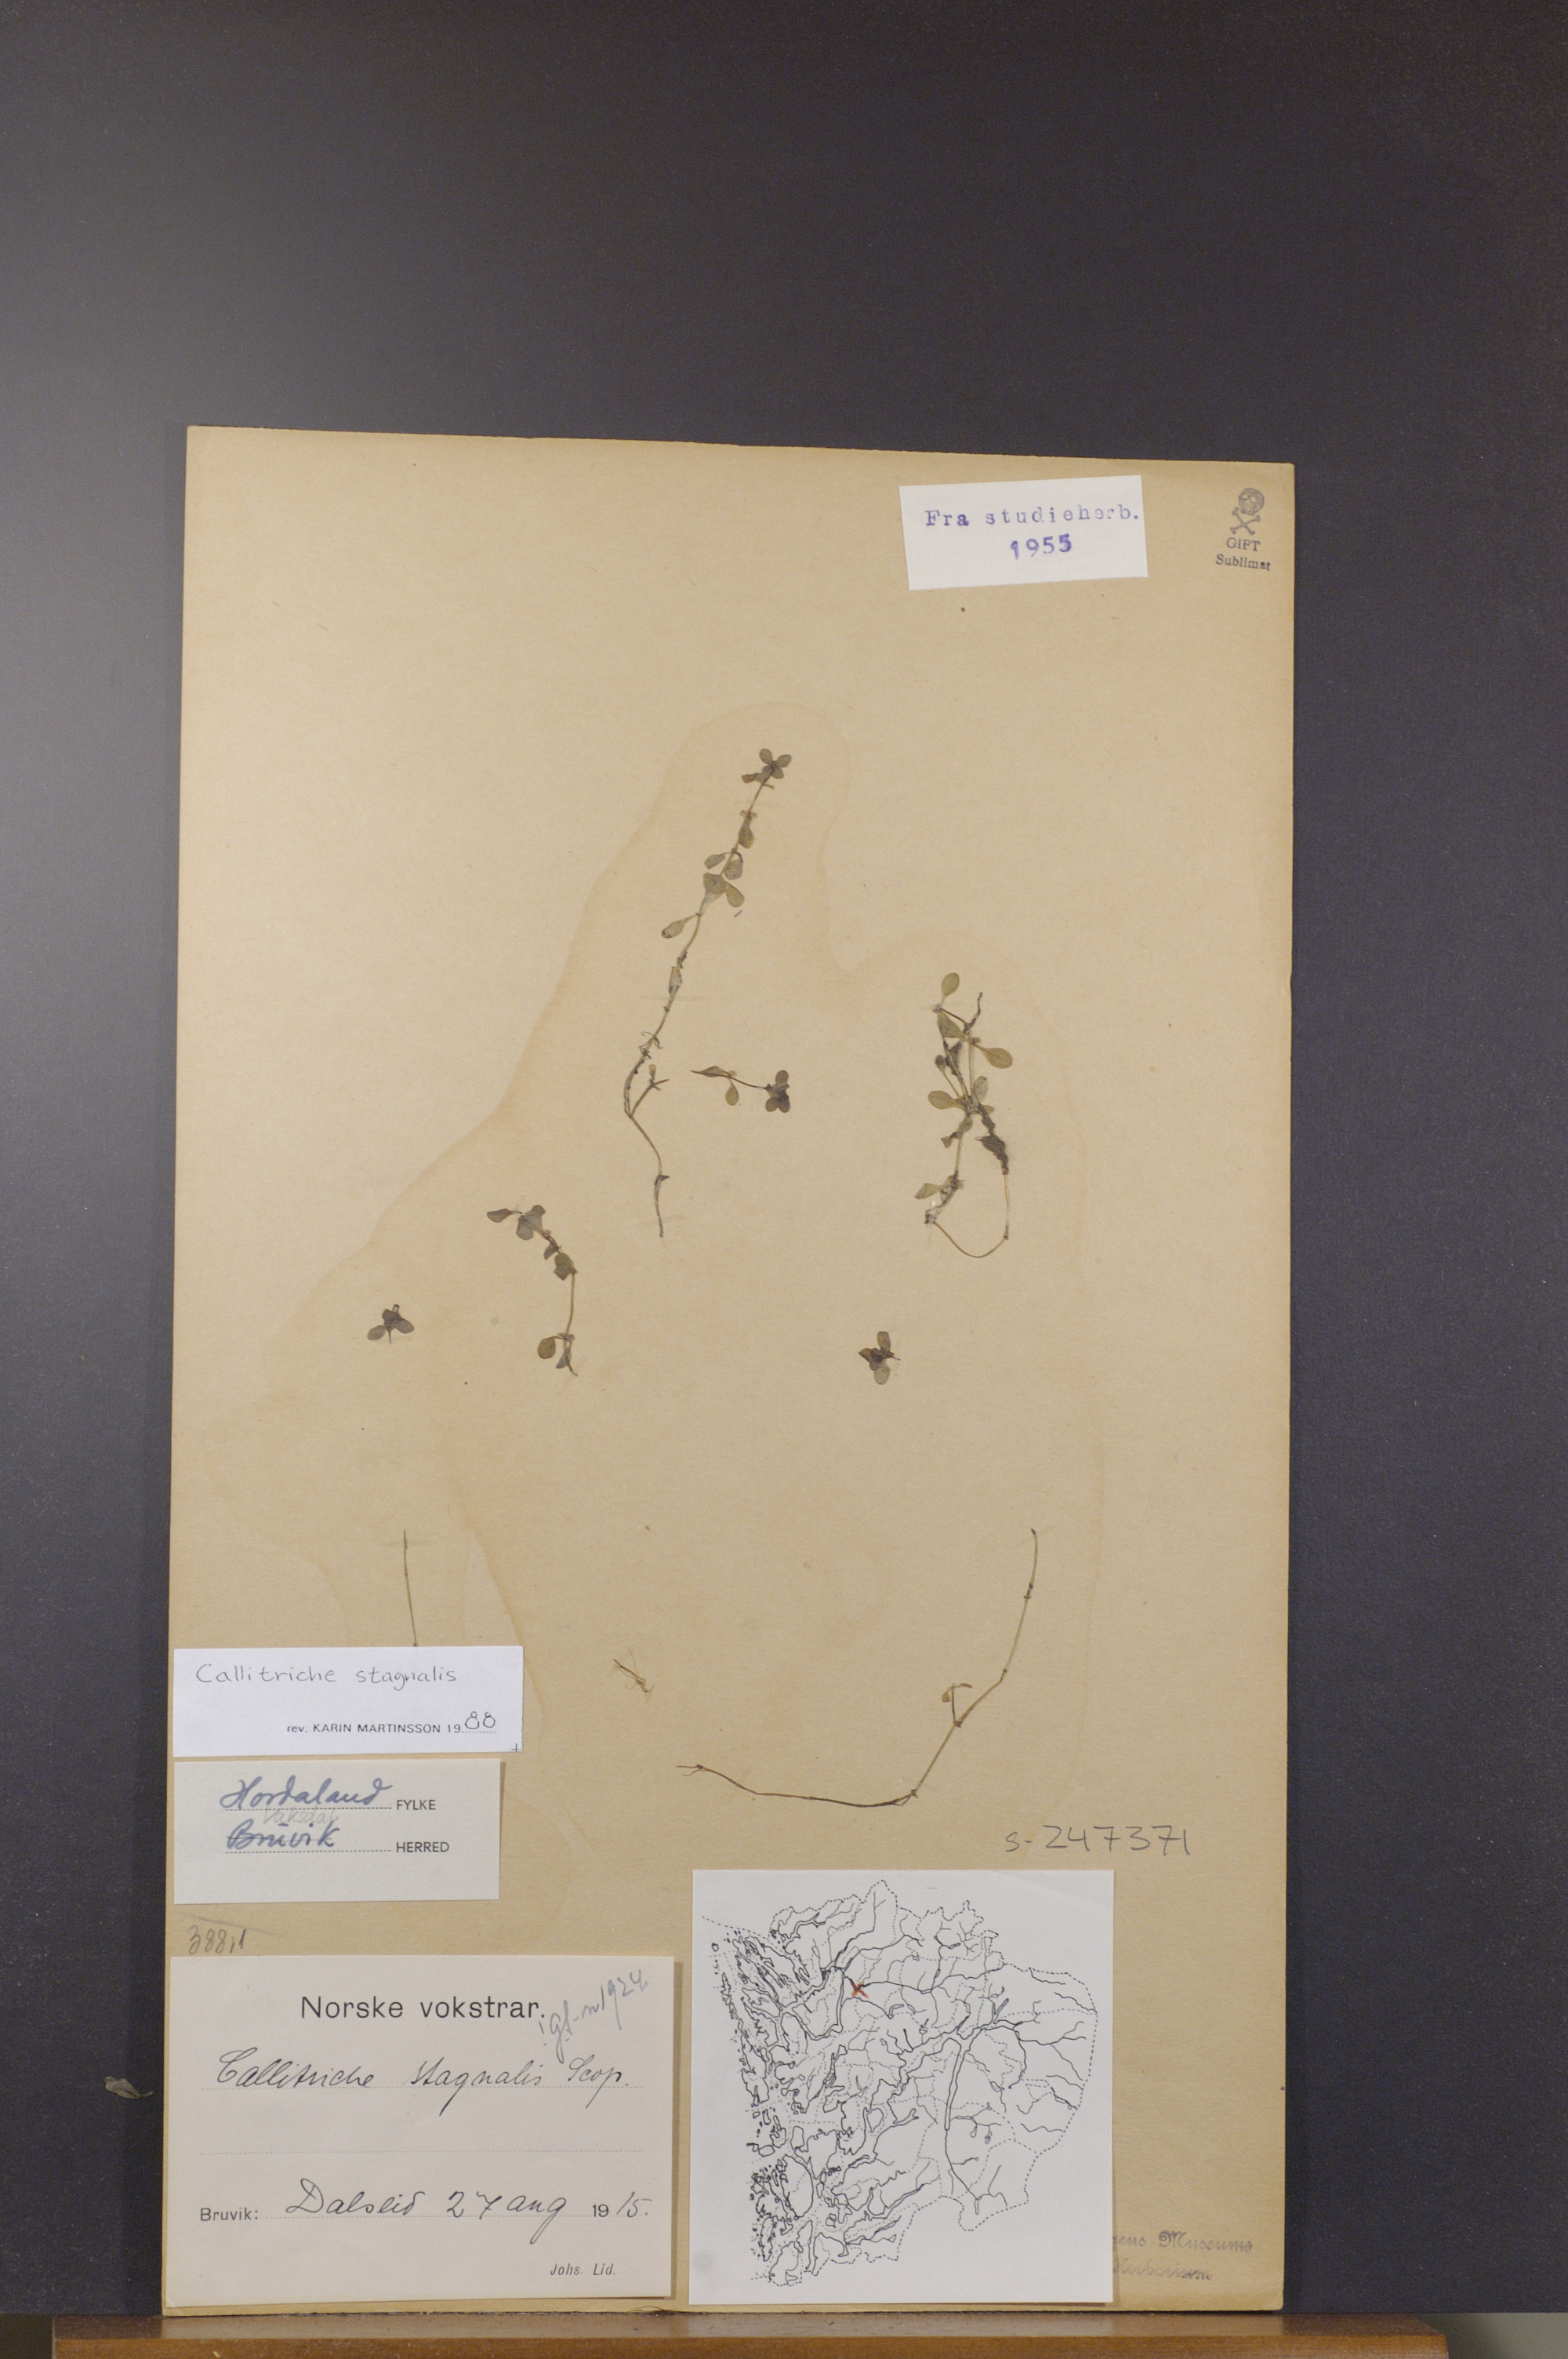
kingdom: Plantae
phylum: Tracheophyta
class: Magnoliopsida
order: Lamiales
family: Plantaginaceae
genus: Callitriche
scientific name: Callitriche stagnalis
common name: Common water-starwort
